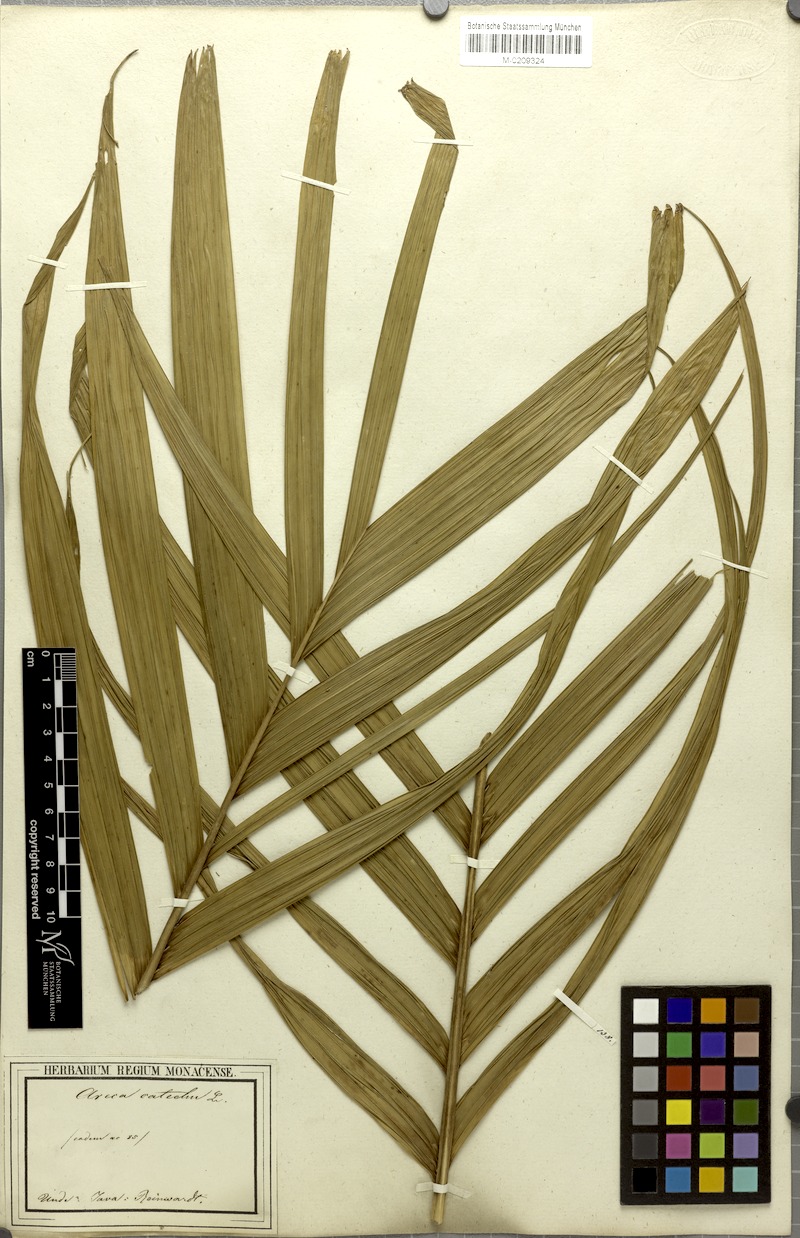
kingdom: Plantae
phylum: Tracheophyta
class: Liliopsida
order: Arecales
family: Arecaceae
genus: Areca
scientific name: Areca catechu
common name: Indian-nut
